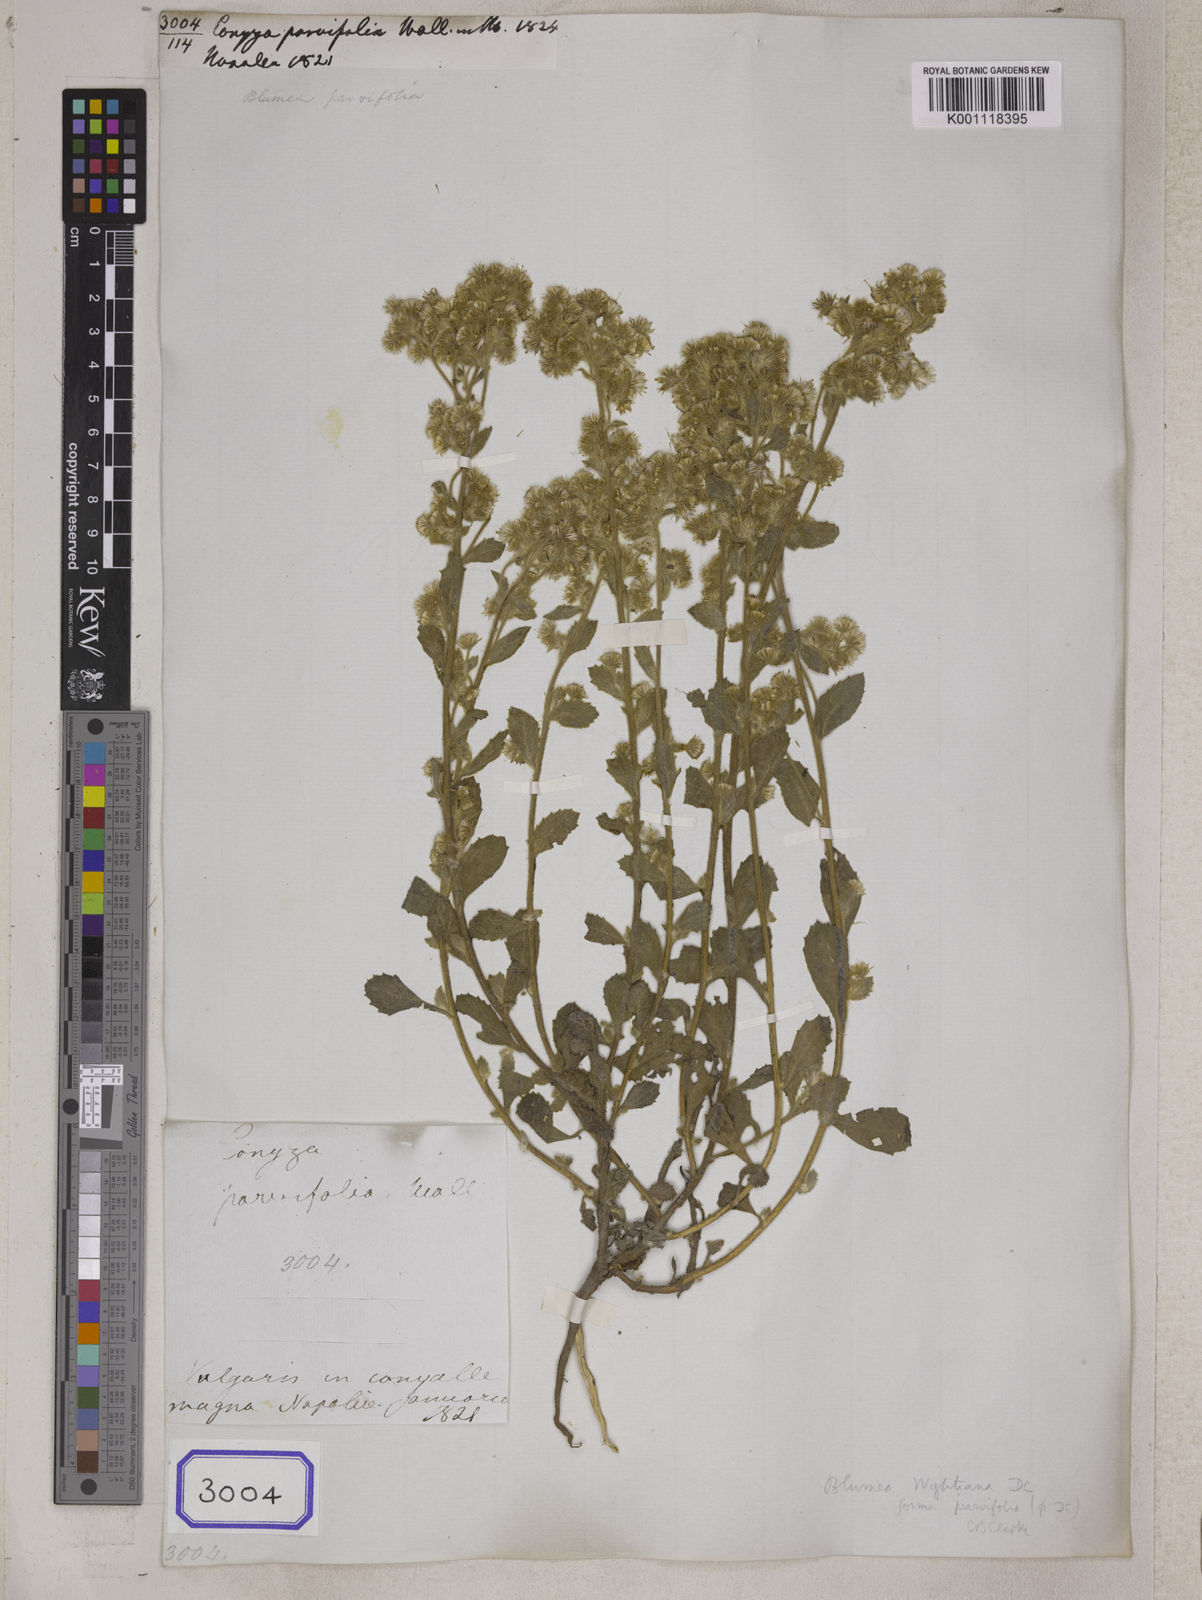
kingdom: Plantae
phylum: Tracheophyta
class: Magnoliopsida
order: Asterales
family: Asteraceae
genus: Blumea
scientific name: Blumea axillaris
